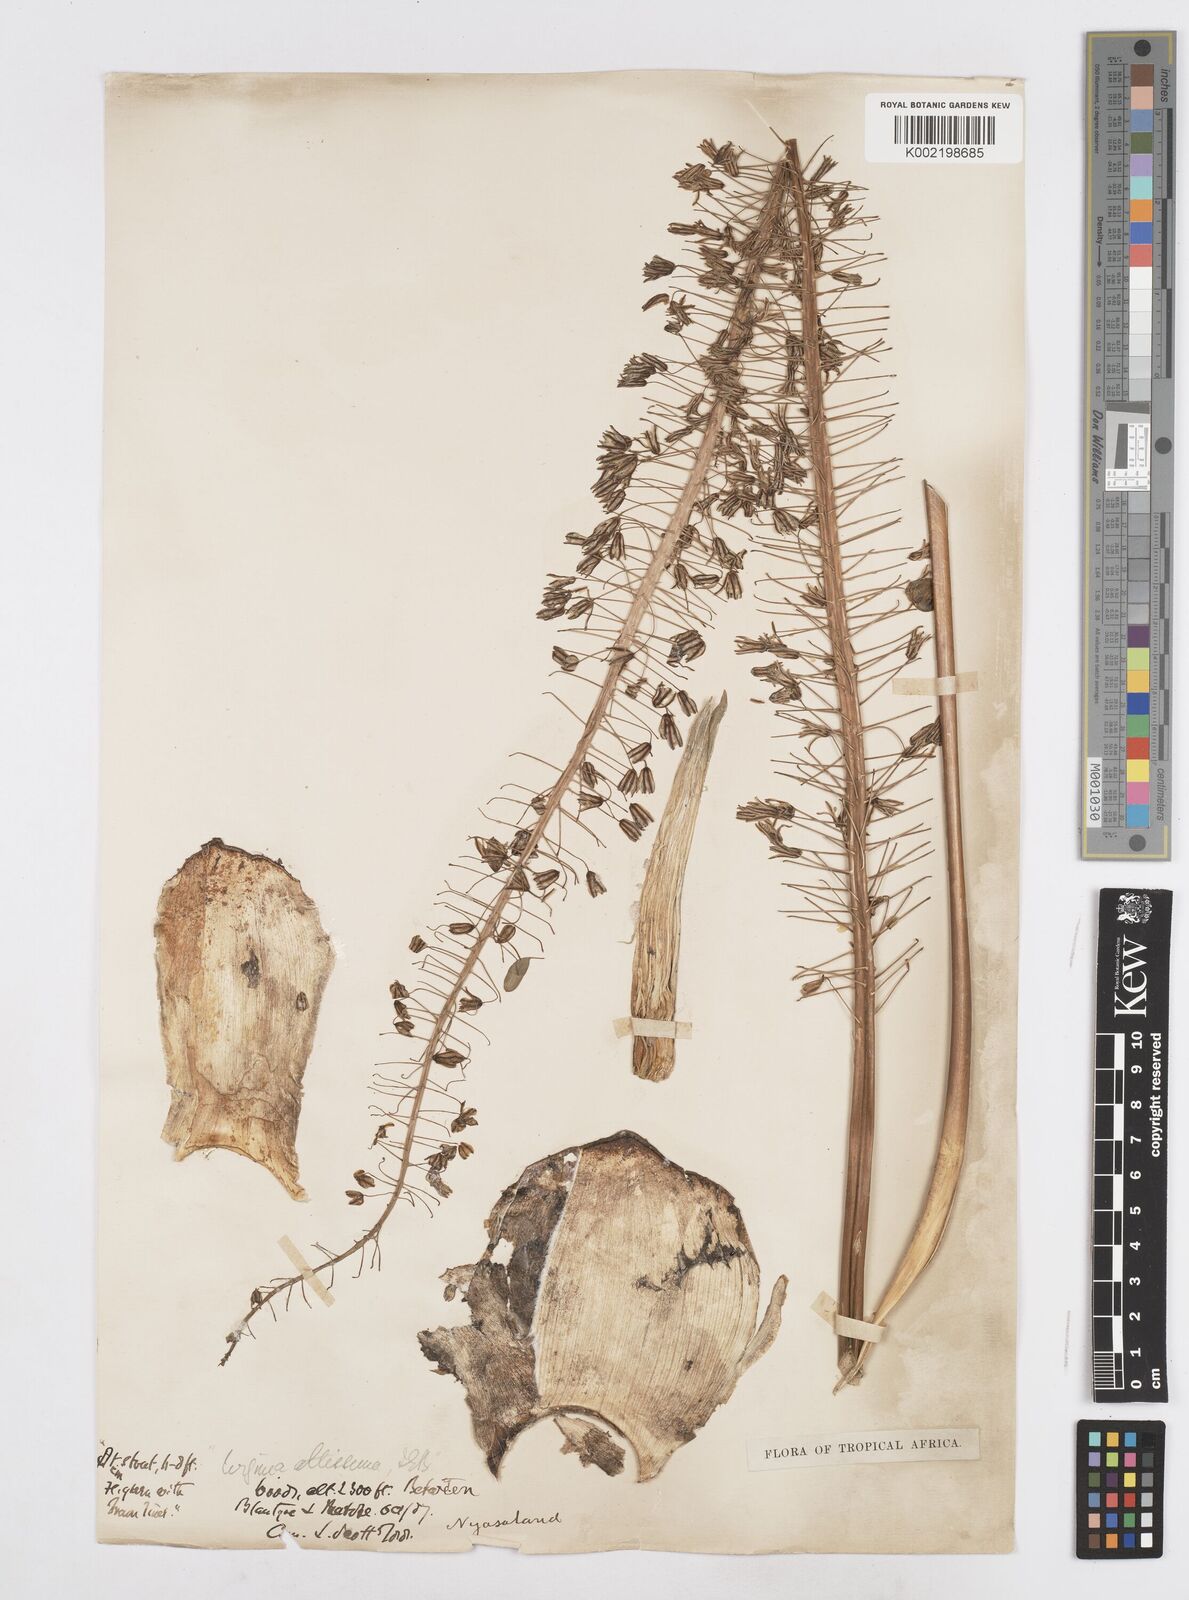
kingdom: Plantae
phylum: Tracheophyta
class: Liliopsida
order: Asparagales
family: Asparagaceae
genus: Drimia
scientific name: Drimia altissima
